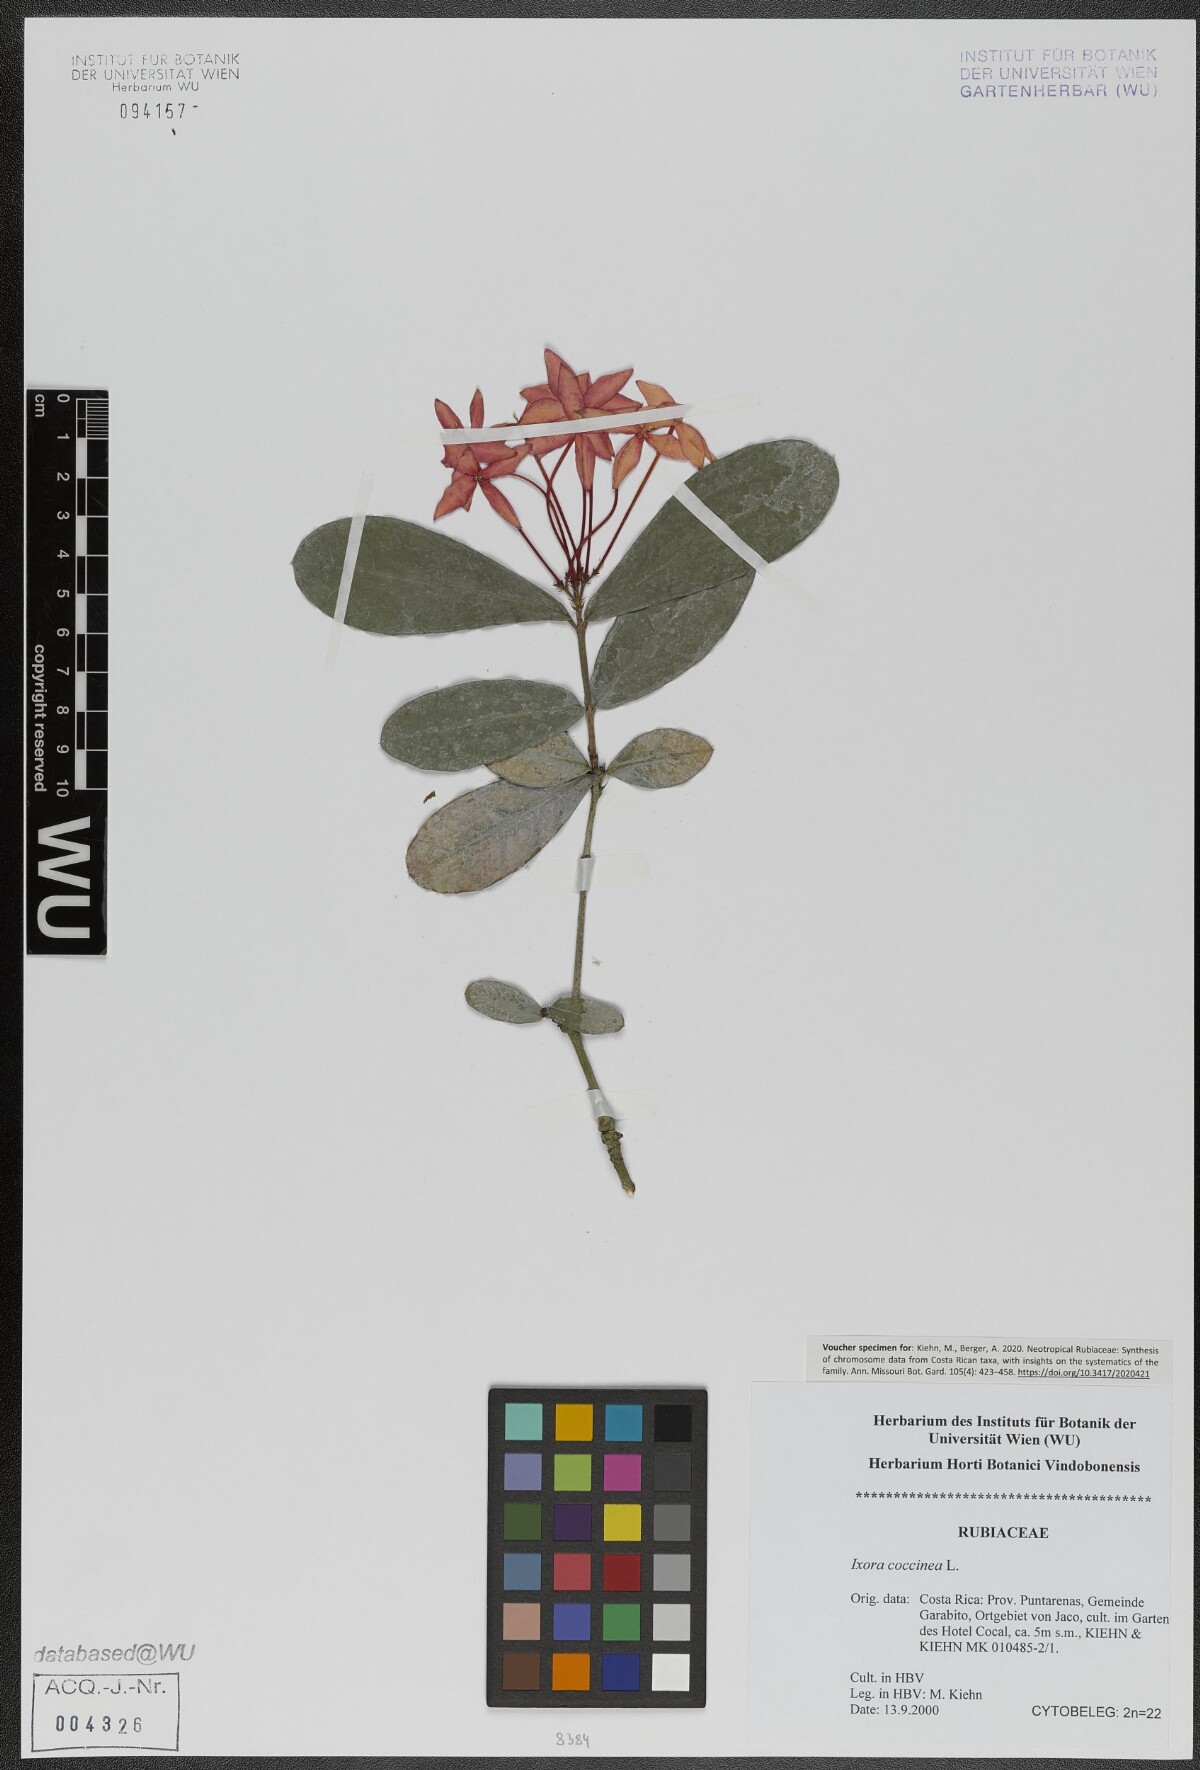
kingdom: Plantae
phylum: Tracheophyta
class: Magnoliopsida
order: Gentianales
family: Rubiaceae
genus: Ixora
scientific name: Ixora coccinea
